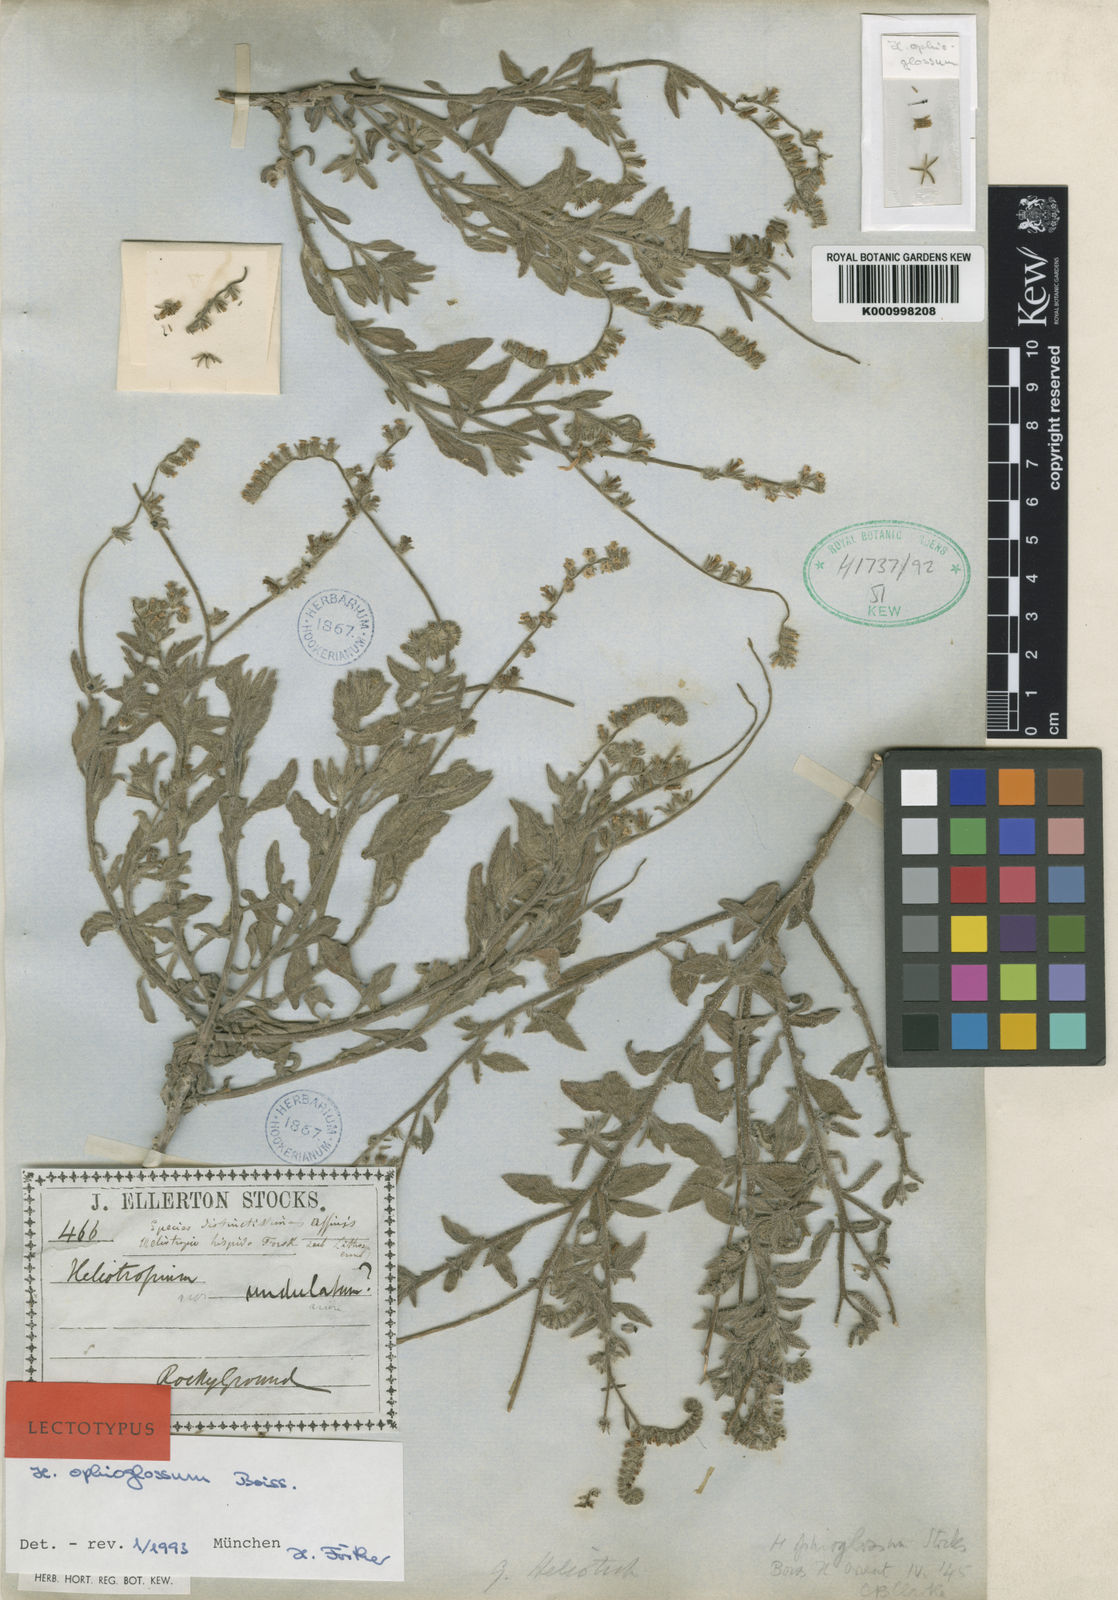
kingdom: Plantae
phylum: Tracheophyta
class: Magnoliopsida
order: Boraginales
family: Heliotropiaceae
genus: Heliotropium
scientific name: Heliotropium ophioglossum
